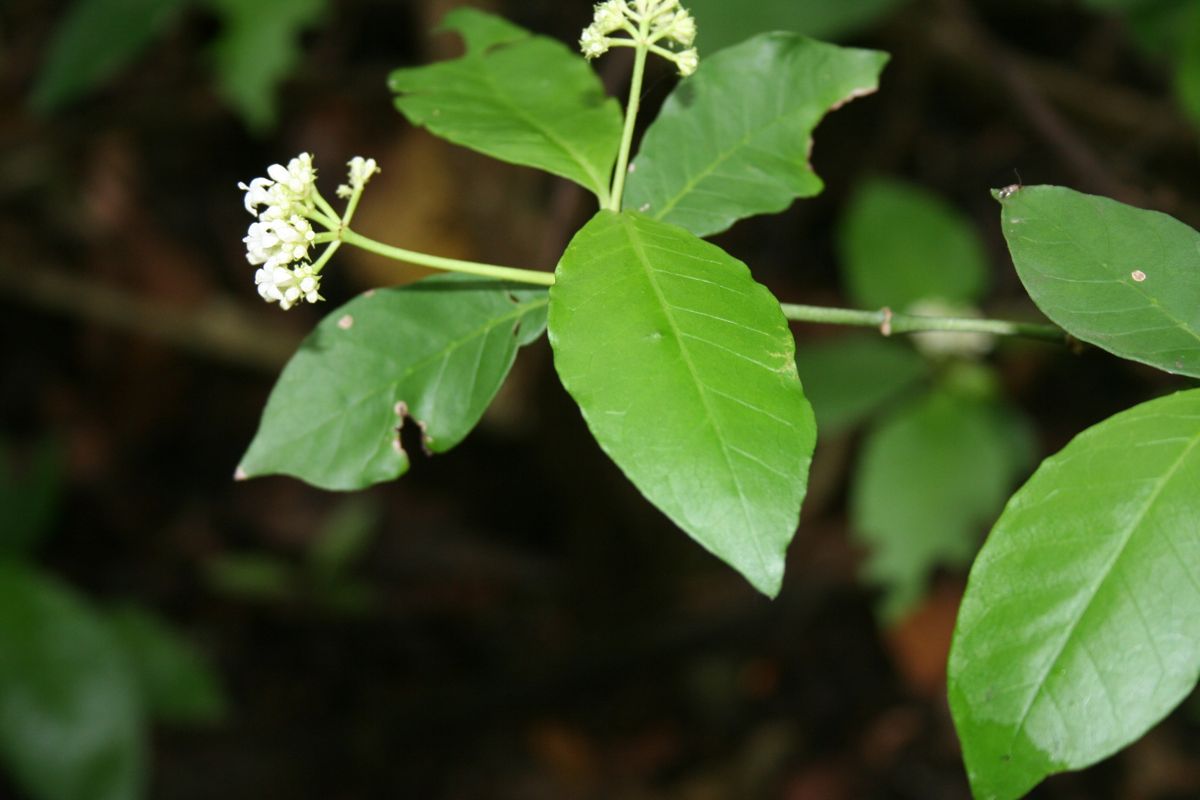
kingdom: Plantae
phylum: Tracheophyta
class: Magnoliopsida
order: Gentianales
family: Rubiaceae
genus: Psychotria
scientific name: Psychotria horizontalis
